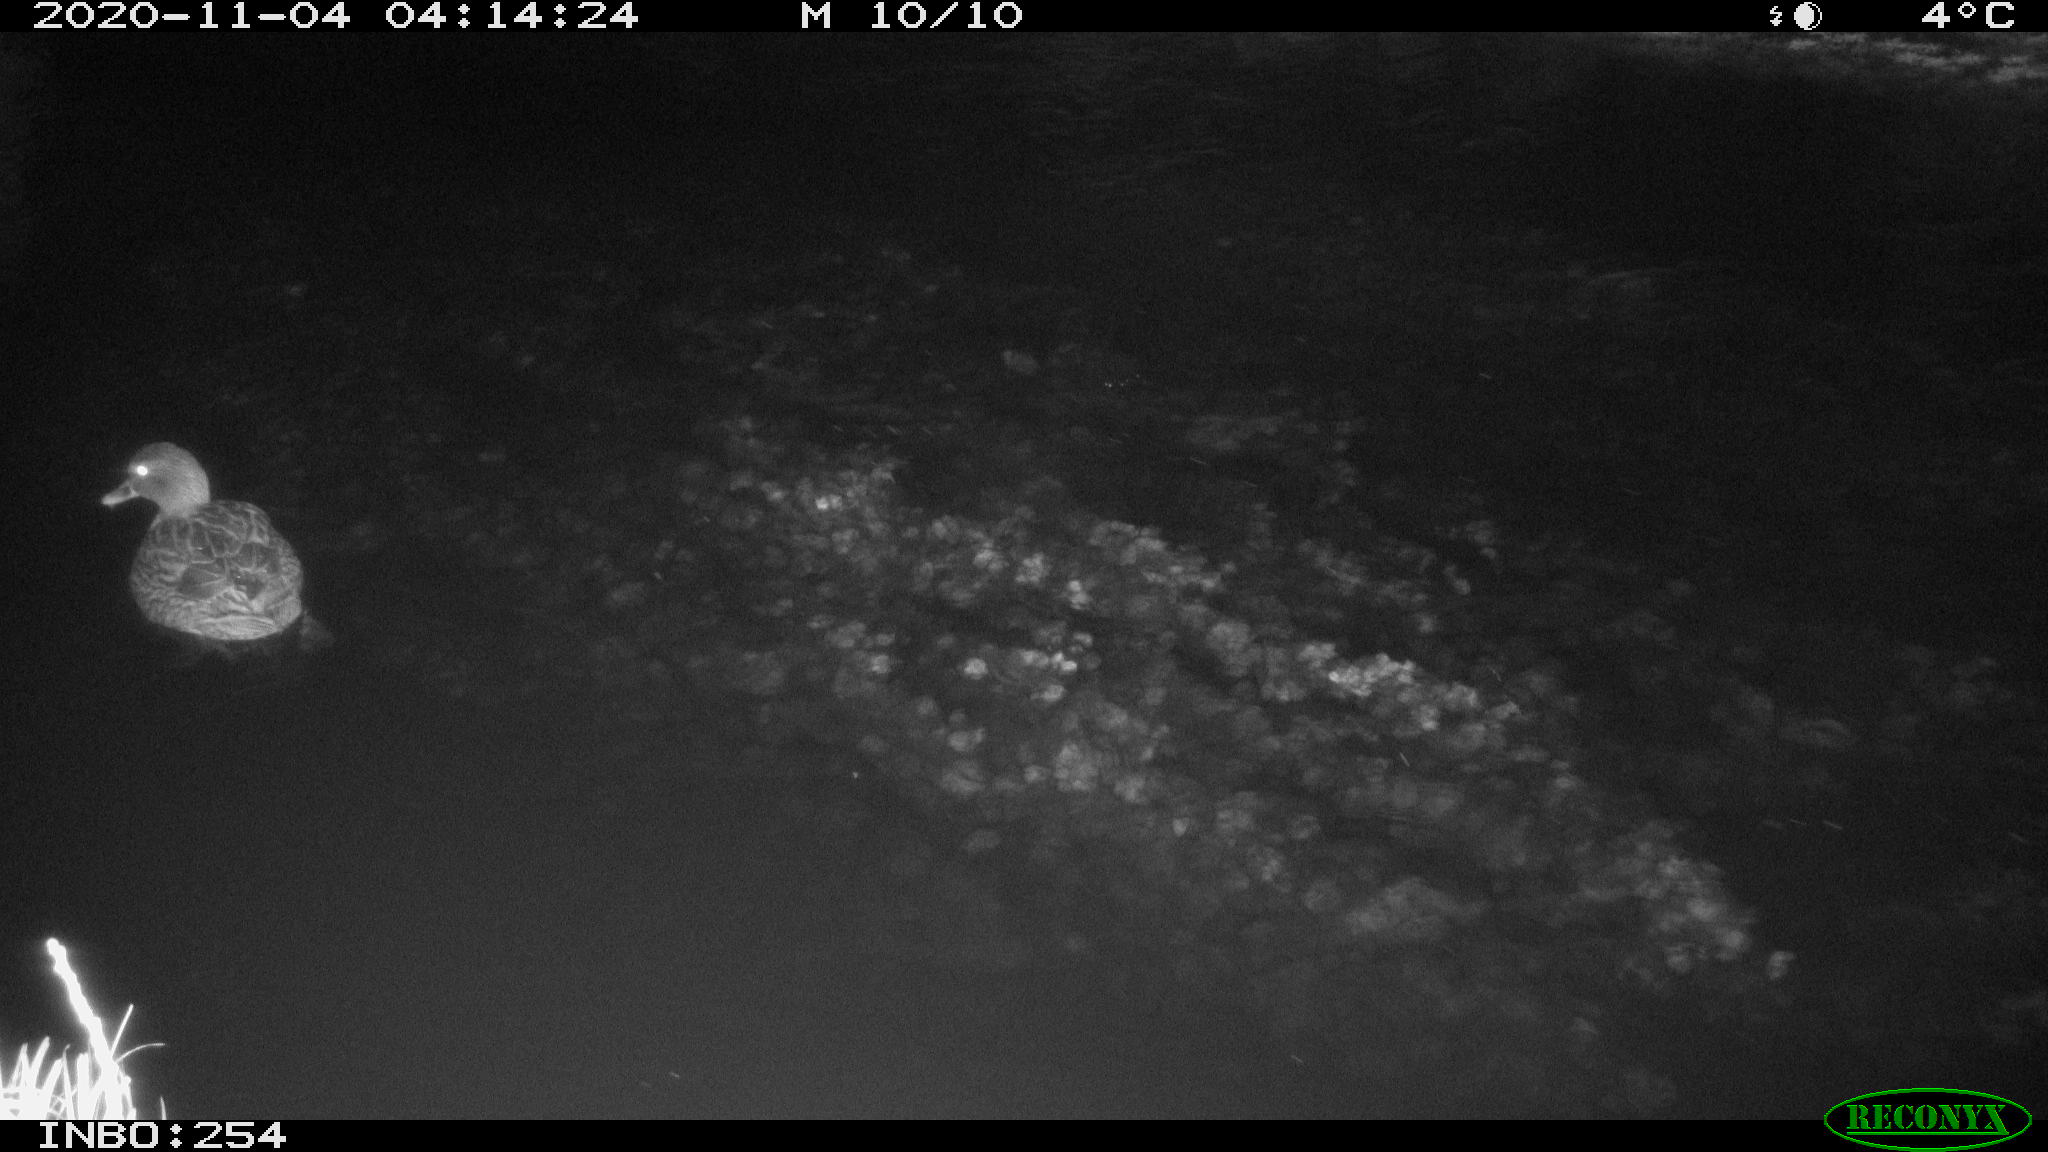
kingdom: Animalia
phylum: Chordata
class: Aves
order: Anseriformes
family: Anatidae
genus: Anas
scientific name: Anas platyrhynchos
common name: Mallard
